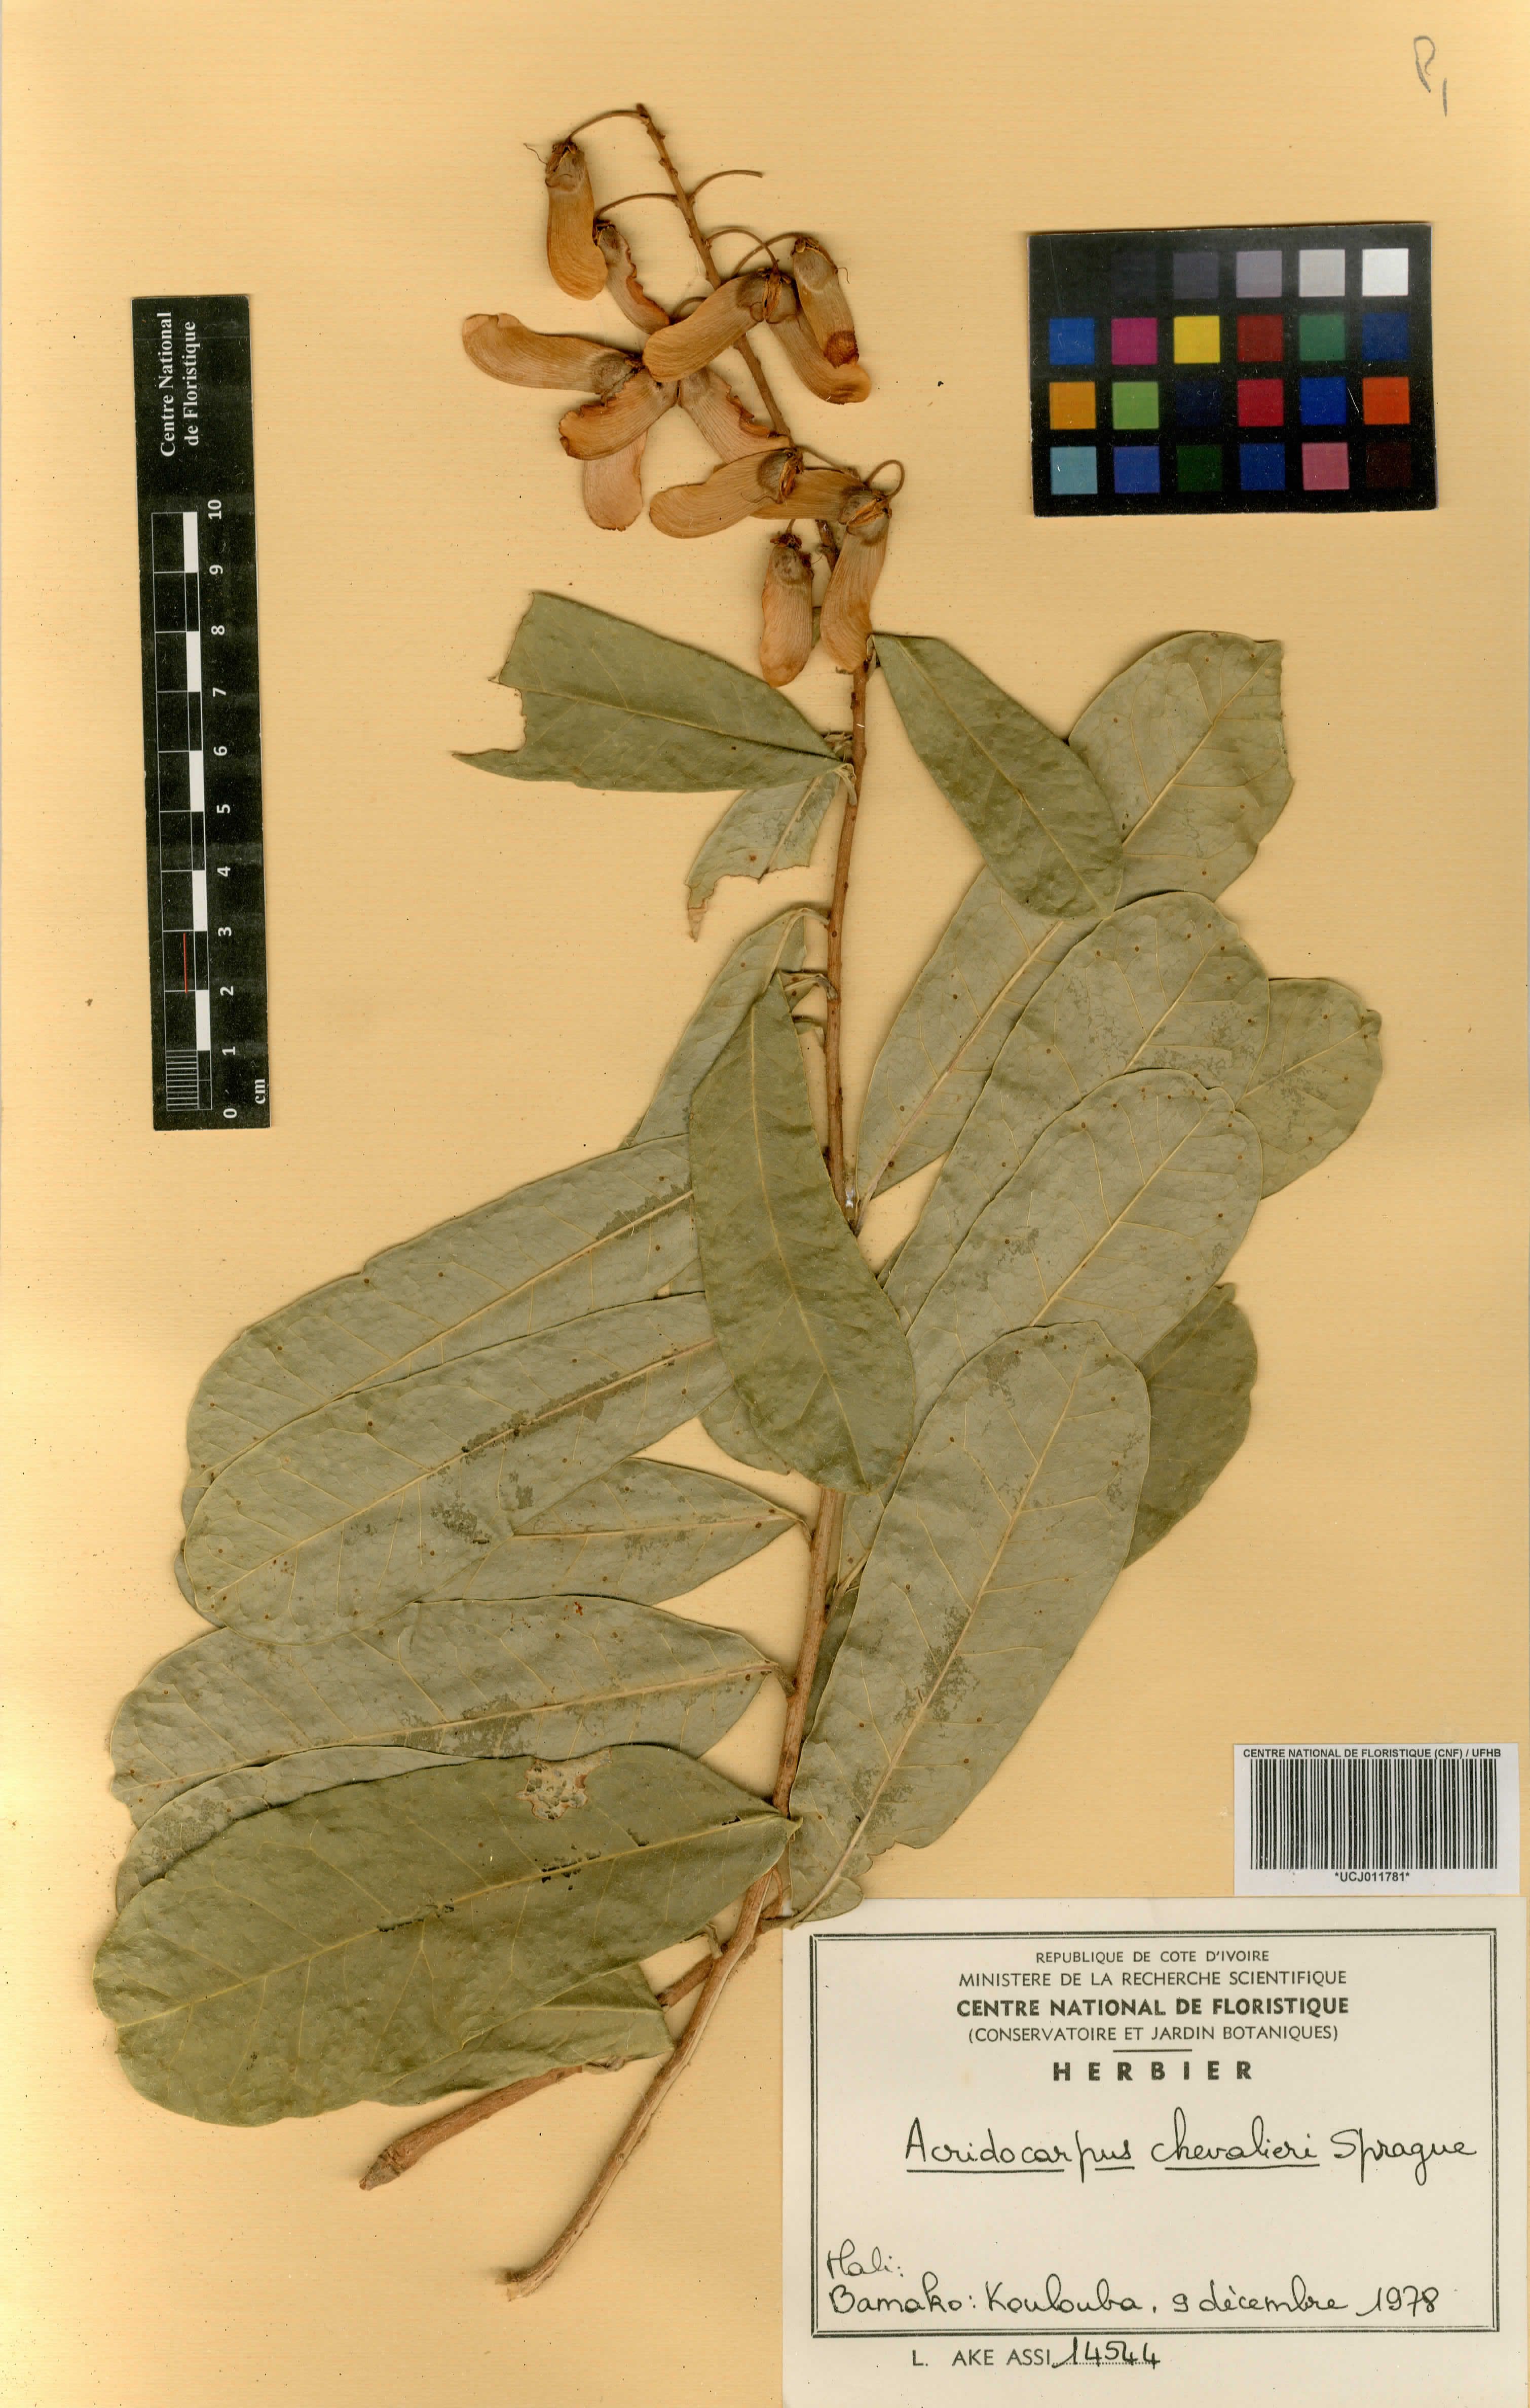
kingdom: Plantae
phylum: Tracheophyta
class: Magnoliopsida
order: Malpighiales
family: Malpighiaceae
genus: Acridocarpus
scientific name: Acridocarpus chevalieri
